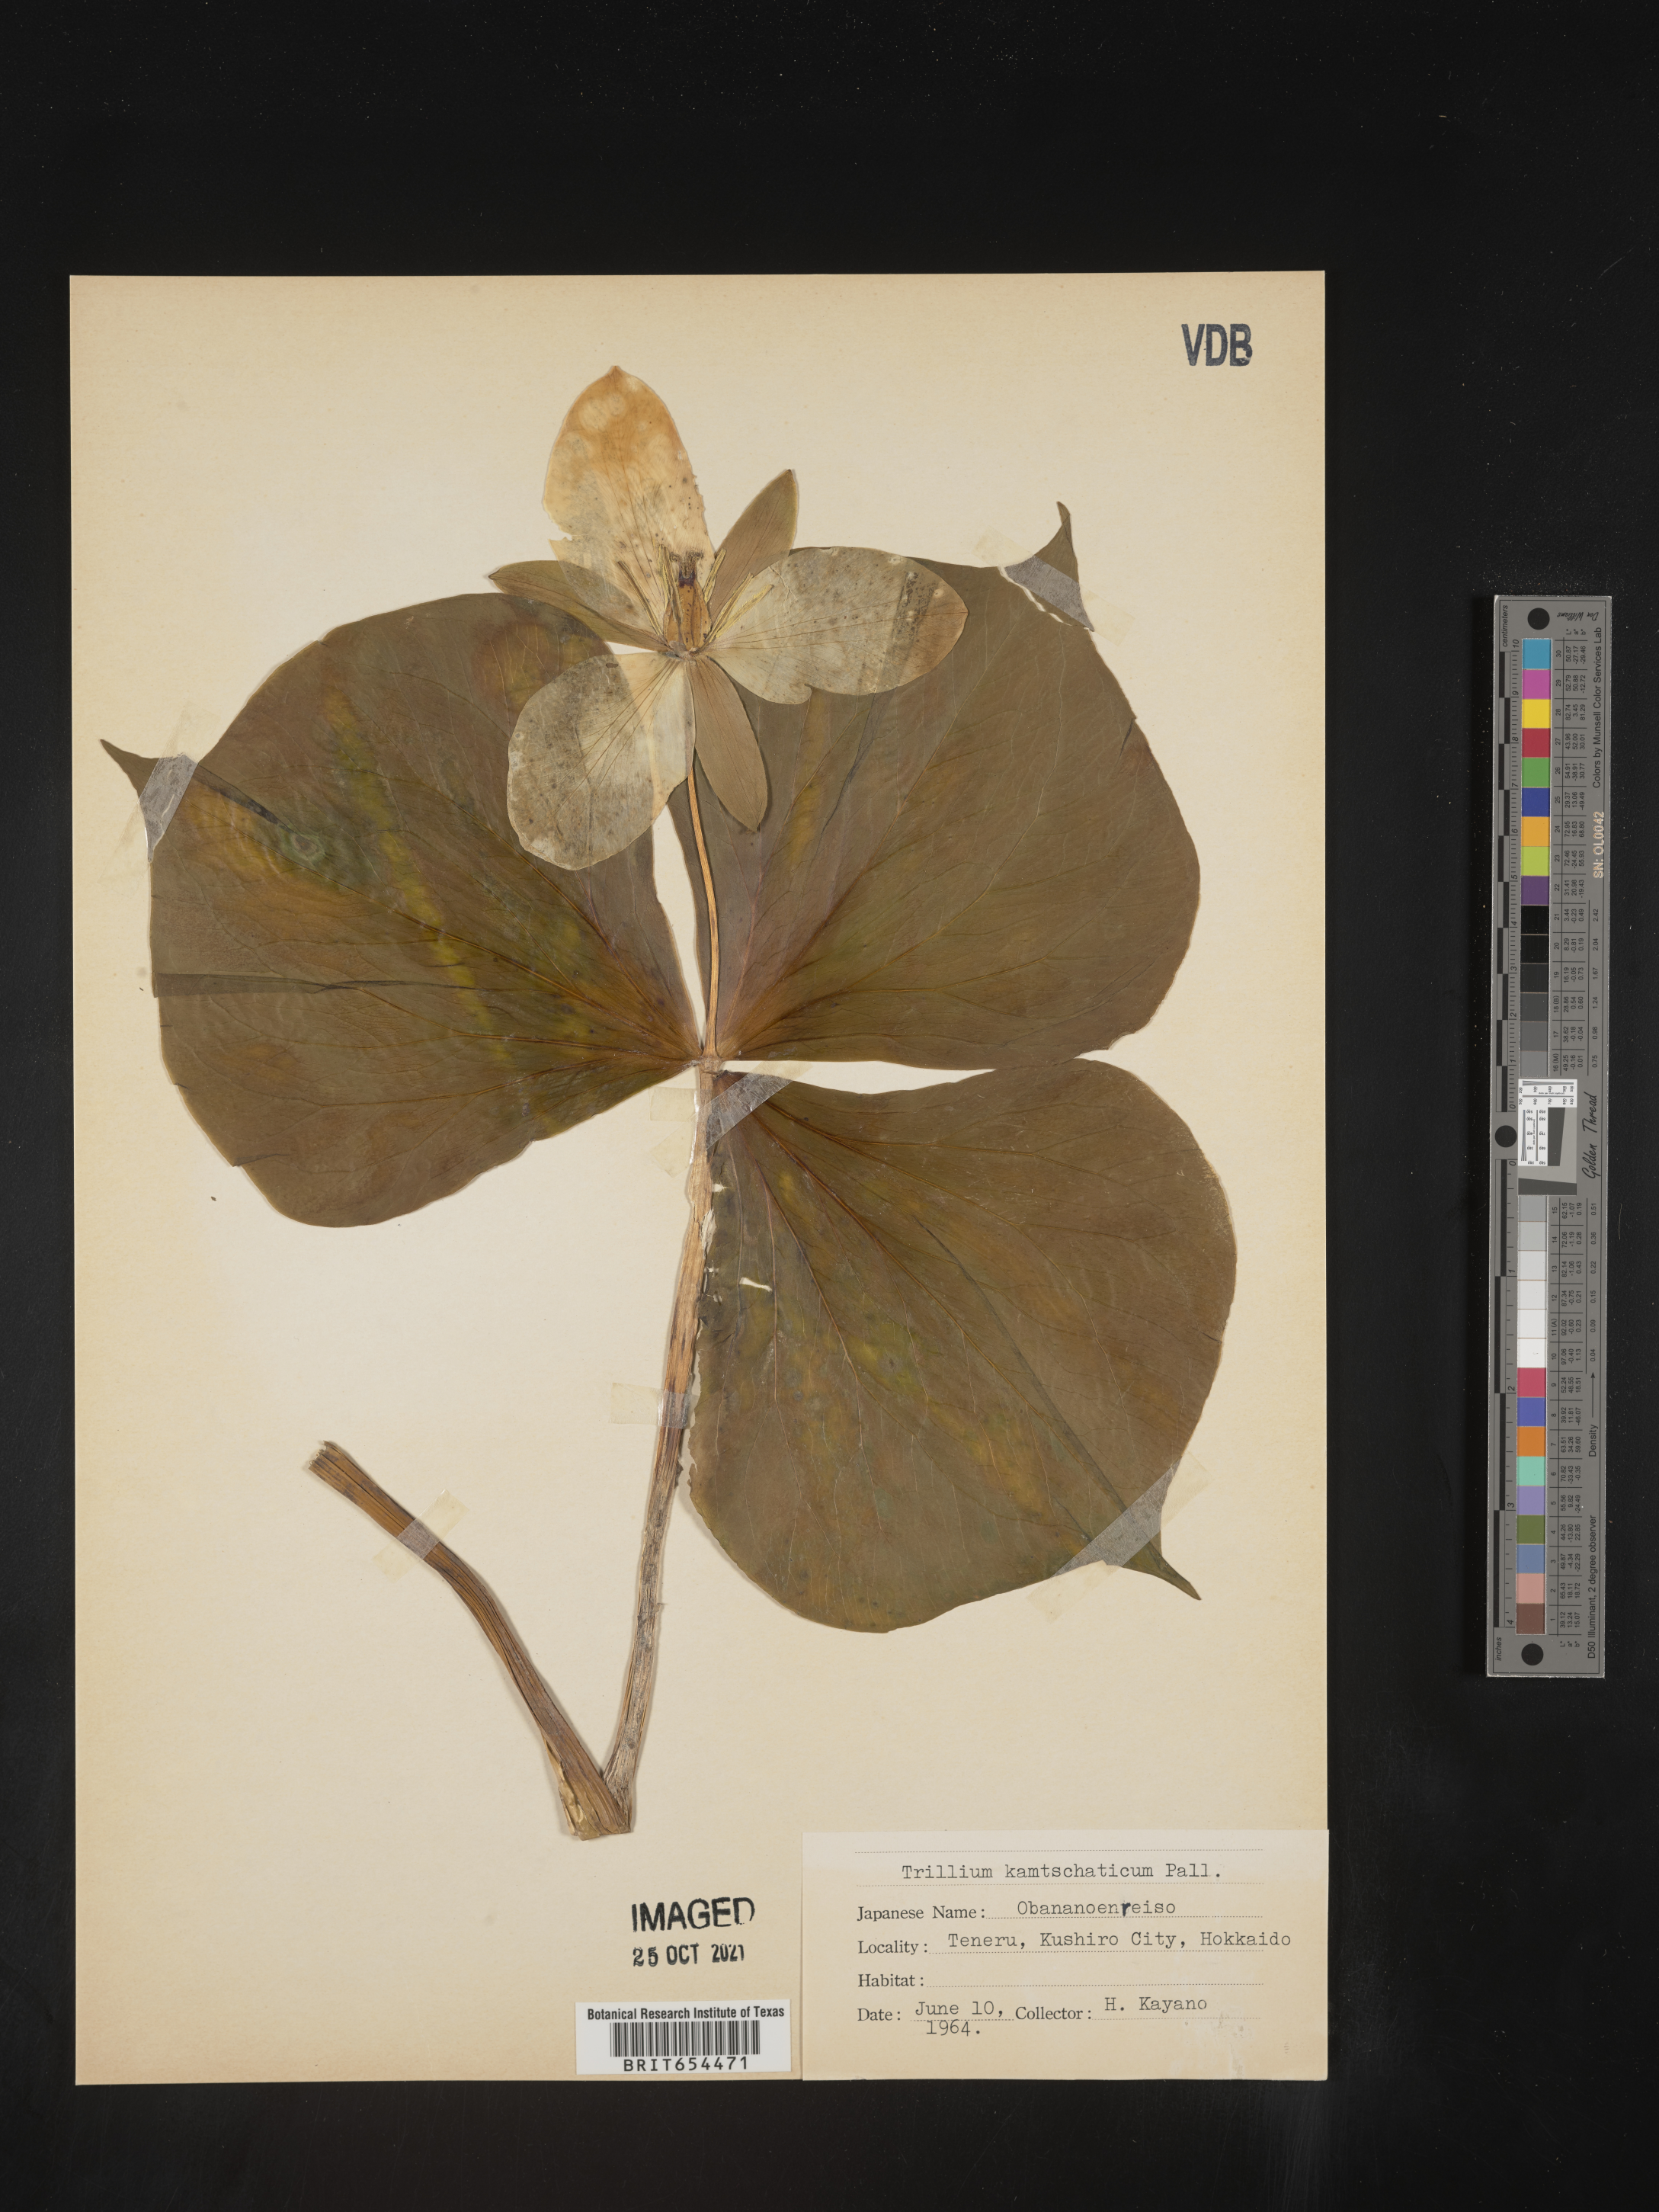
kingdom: Plantae
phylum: Tracheophyta
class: Liliopsida
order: Liliales
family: Melanthiaceae
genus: Trillium
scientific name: Trillium
